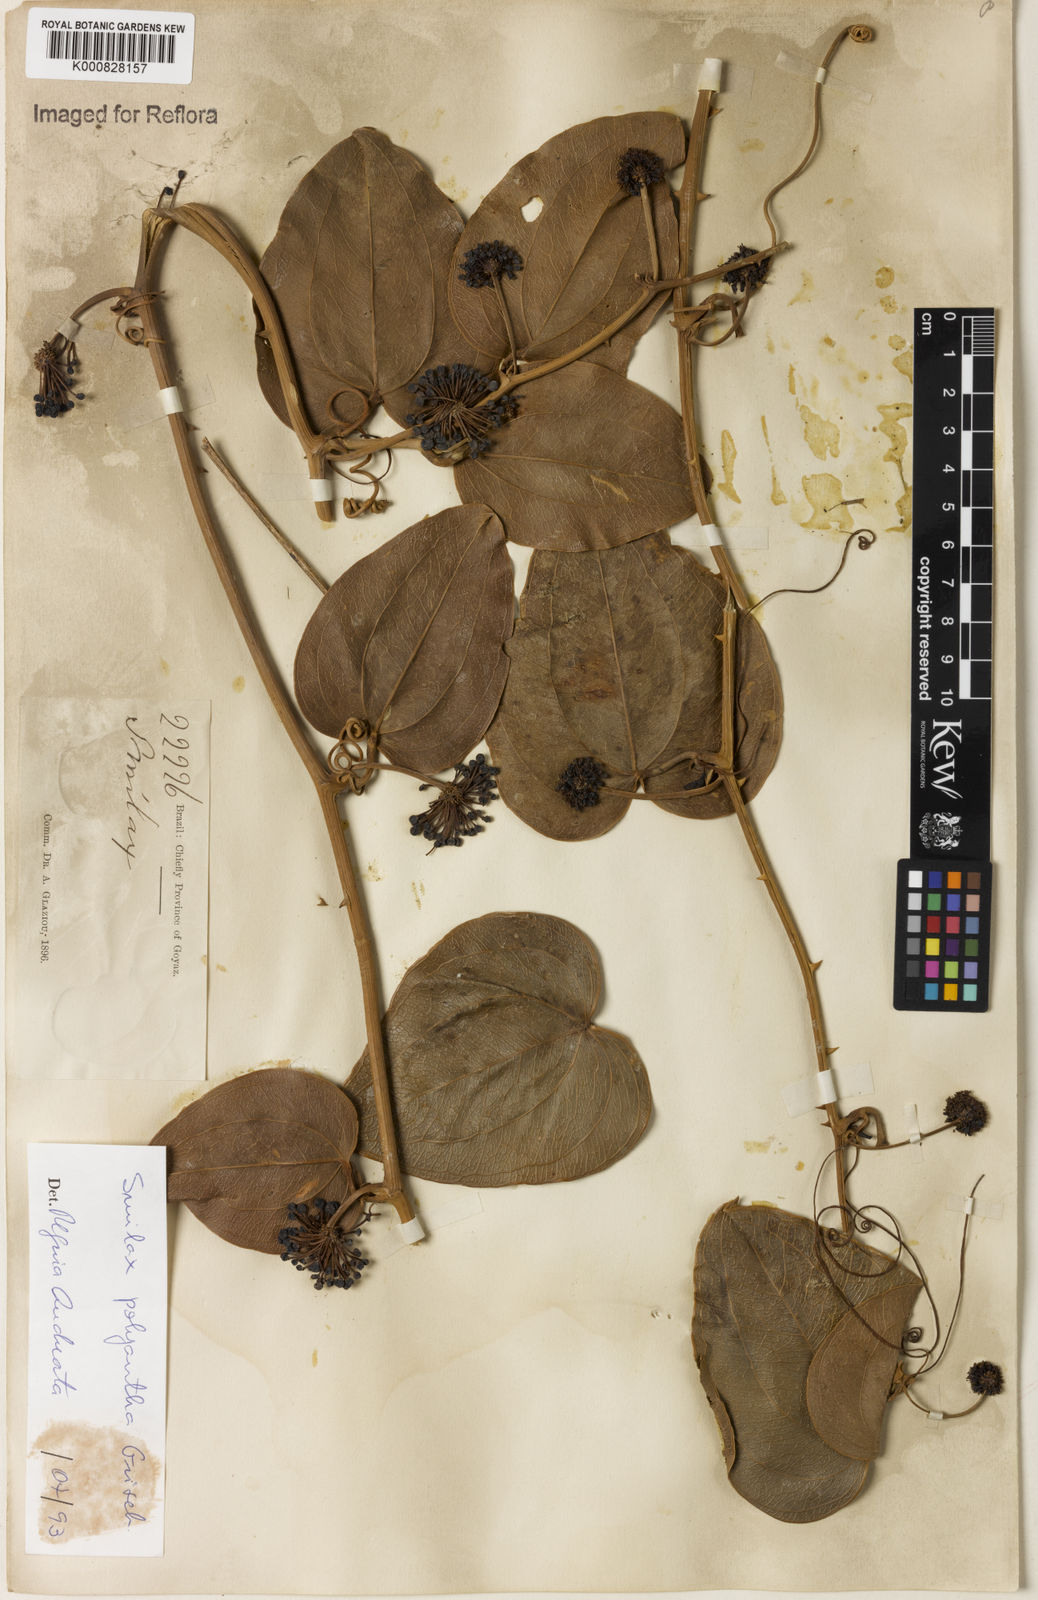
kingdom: Plantae
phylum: Tracheophyta
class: Liliopsida
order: Liliales
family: Smilacaceae
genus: Smilax
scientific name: Smilax polyantha
